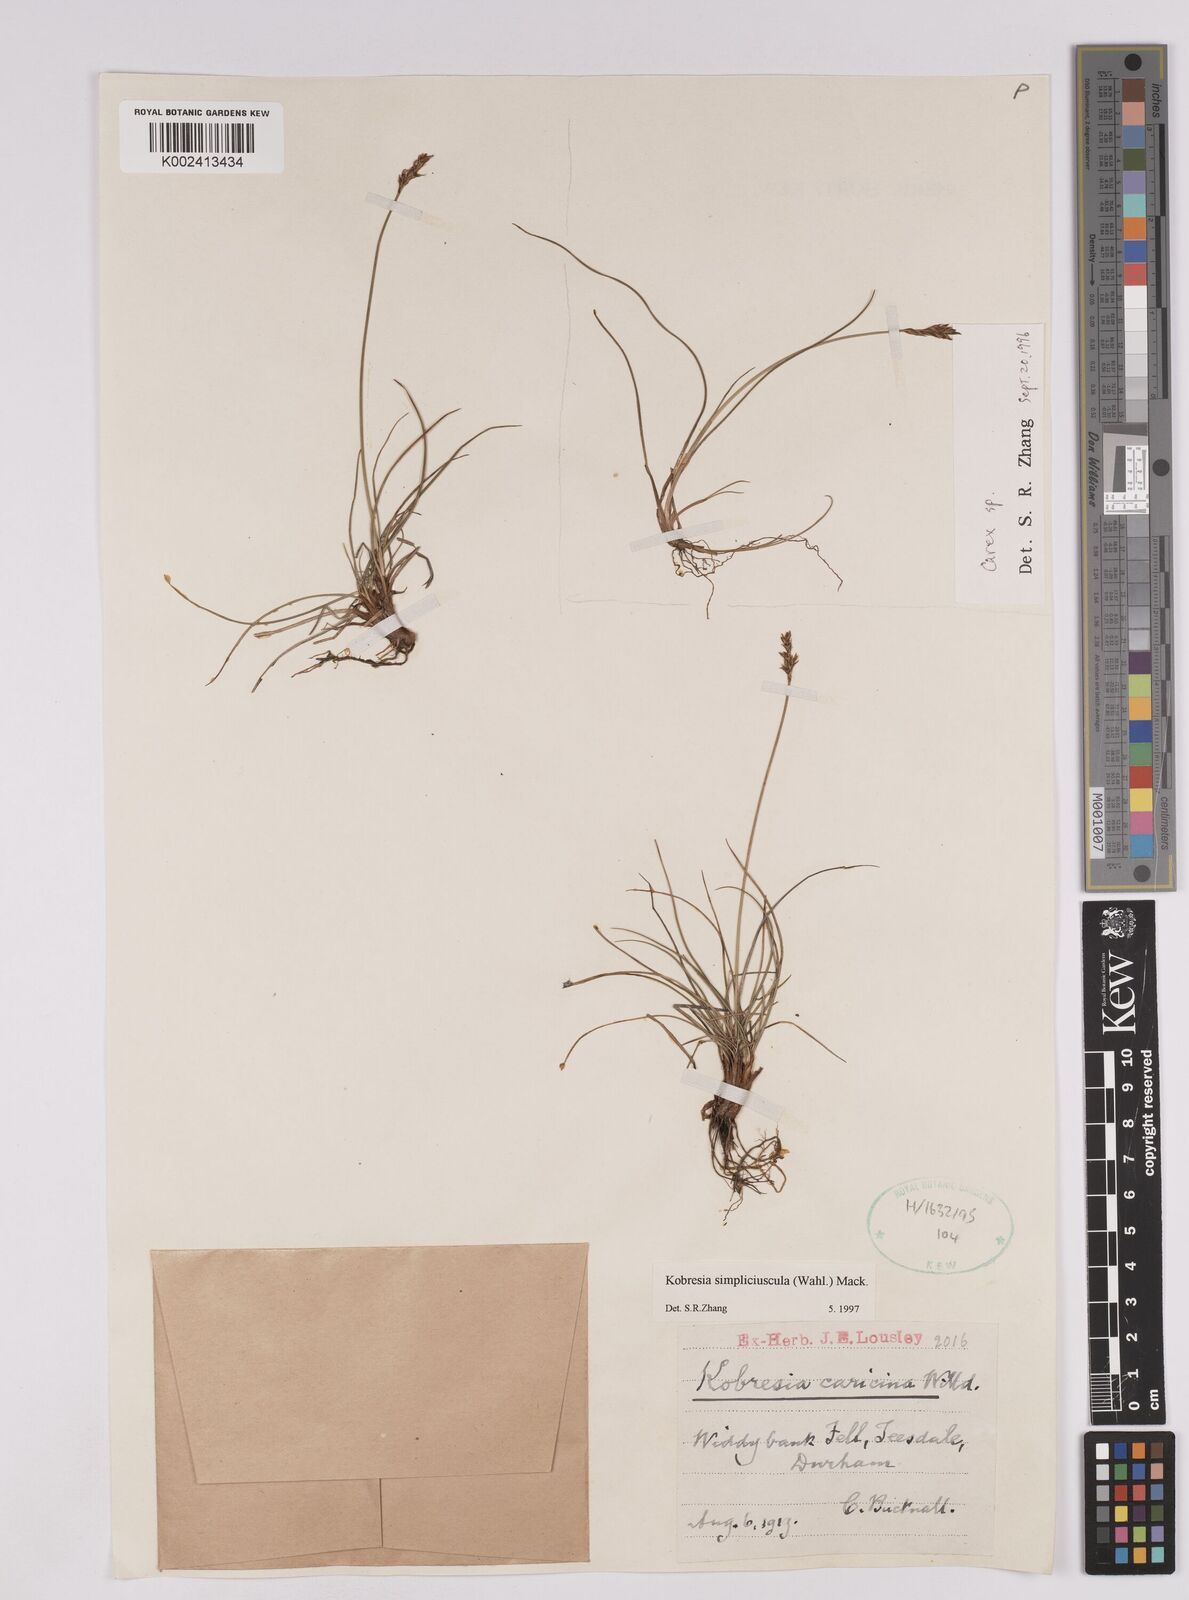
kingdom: Plantae
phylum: Tracheophyta
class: Liliopsida
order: Poales
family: Cyperaceae
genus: Carex
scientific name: Carex simpliciuscula
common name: Simple bog sedge
